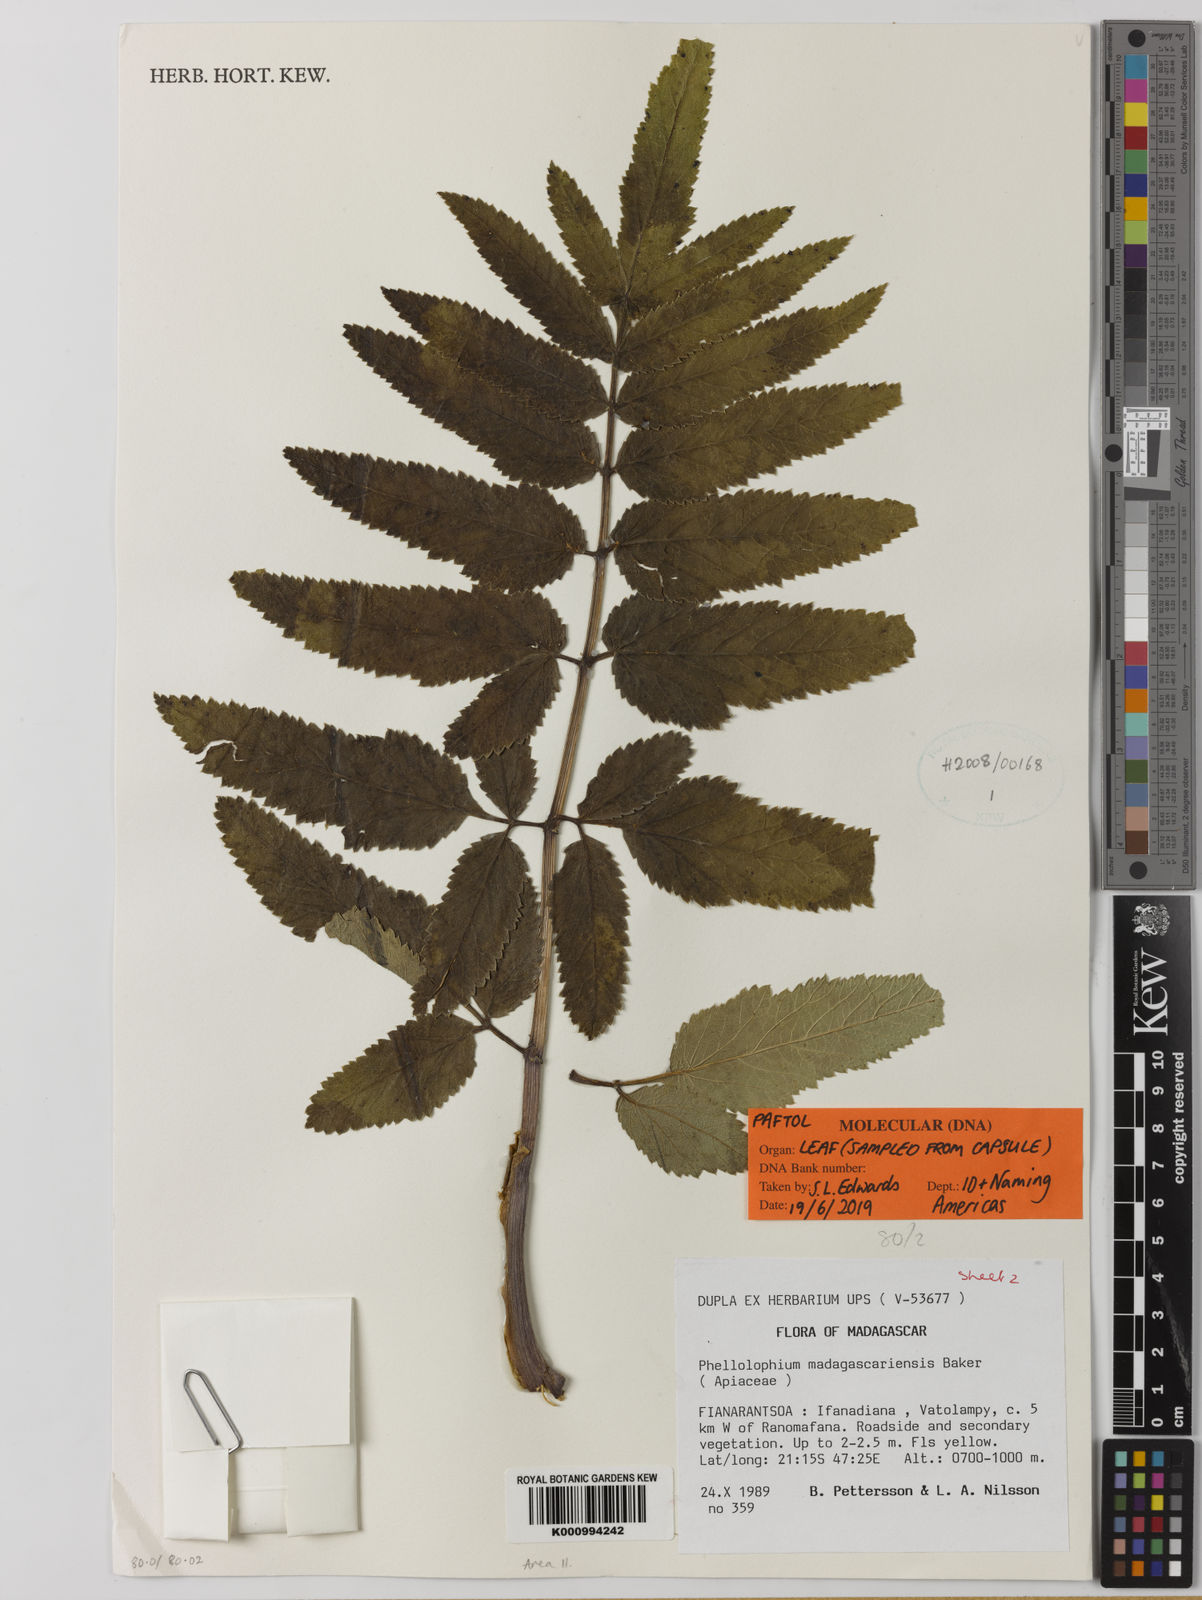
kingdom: Plantae
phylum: Tracheophyta
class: Magnoliopsida
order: Apiales
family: Apiaceae
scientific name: Apiaceae
